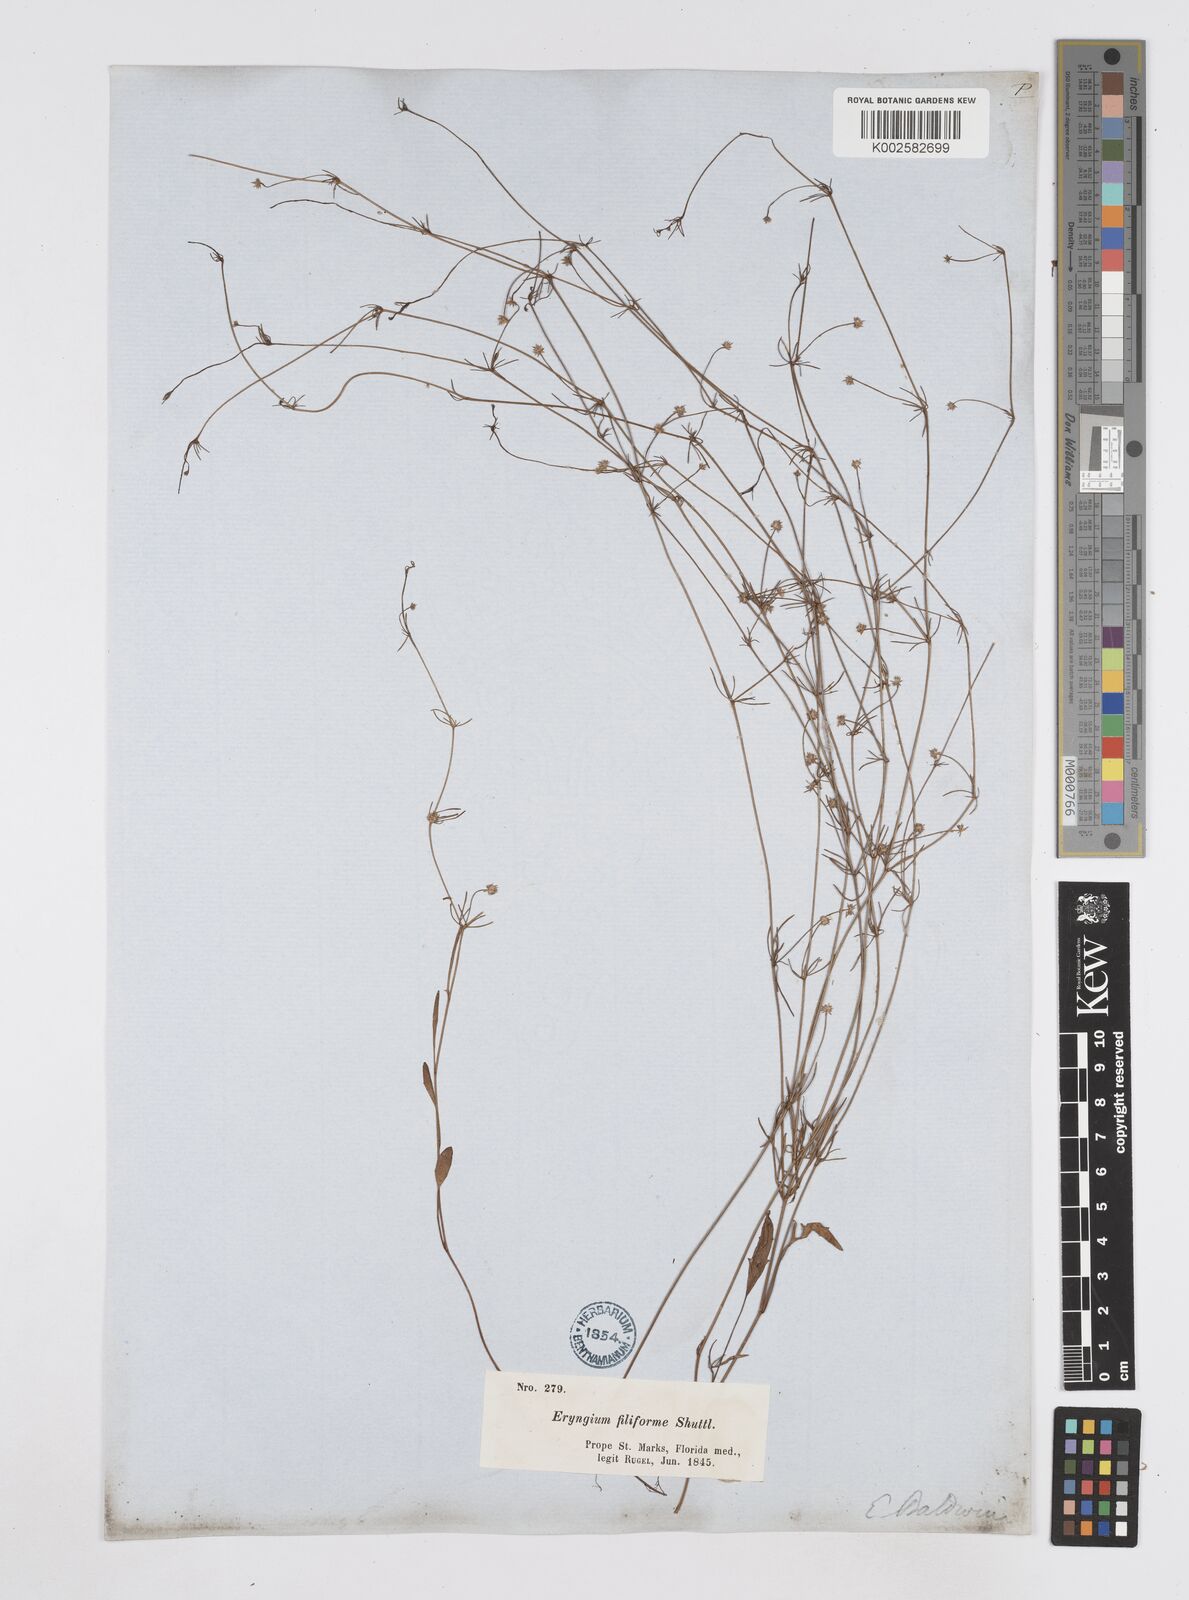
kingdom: Plantae
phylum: Tracheophyta
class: Magnoliopsida
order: Apiales
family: Apiaceae
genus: Eryngium
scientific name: Eryngium baldwinii
